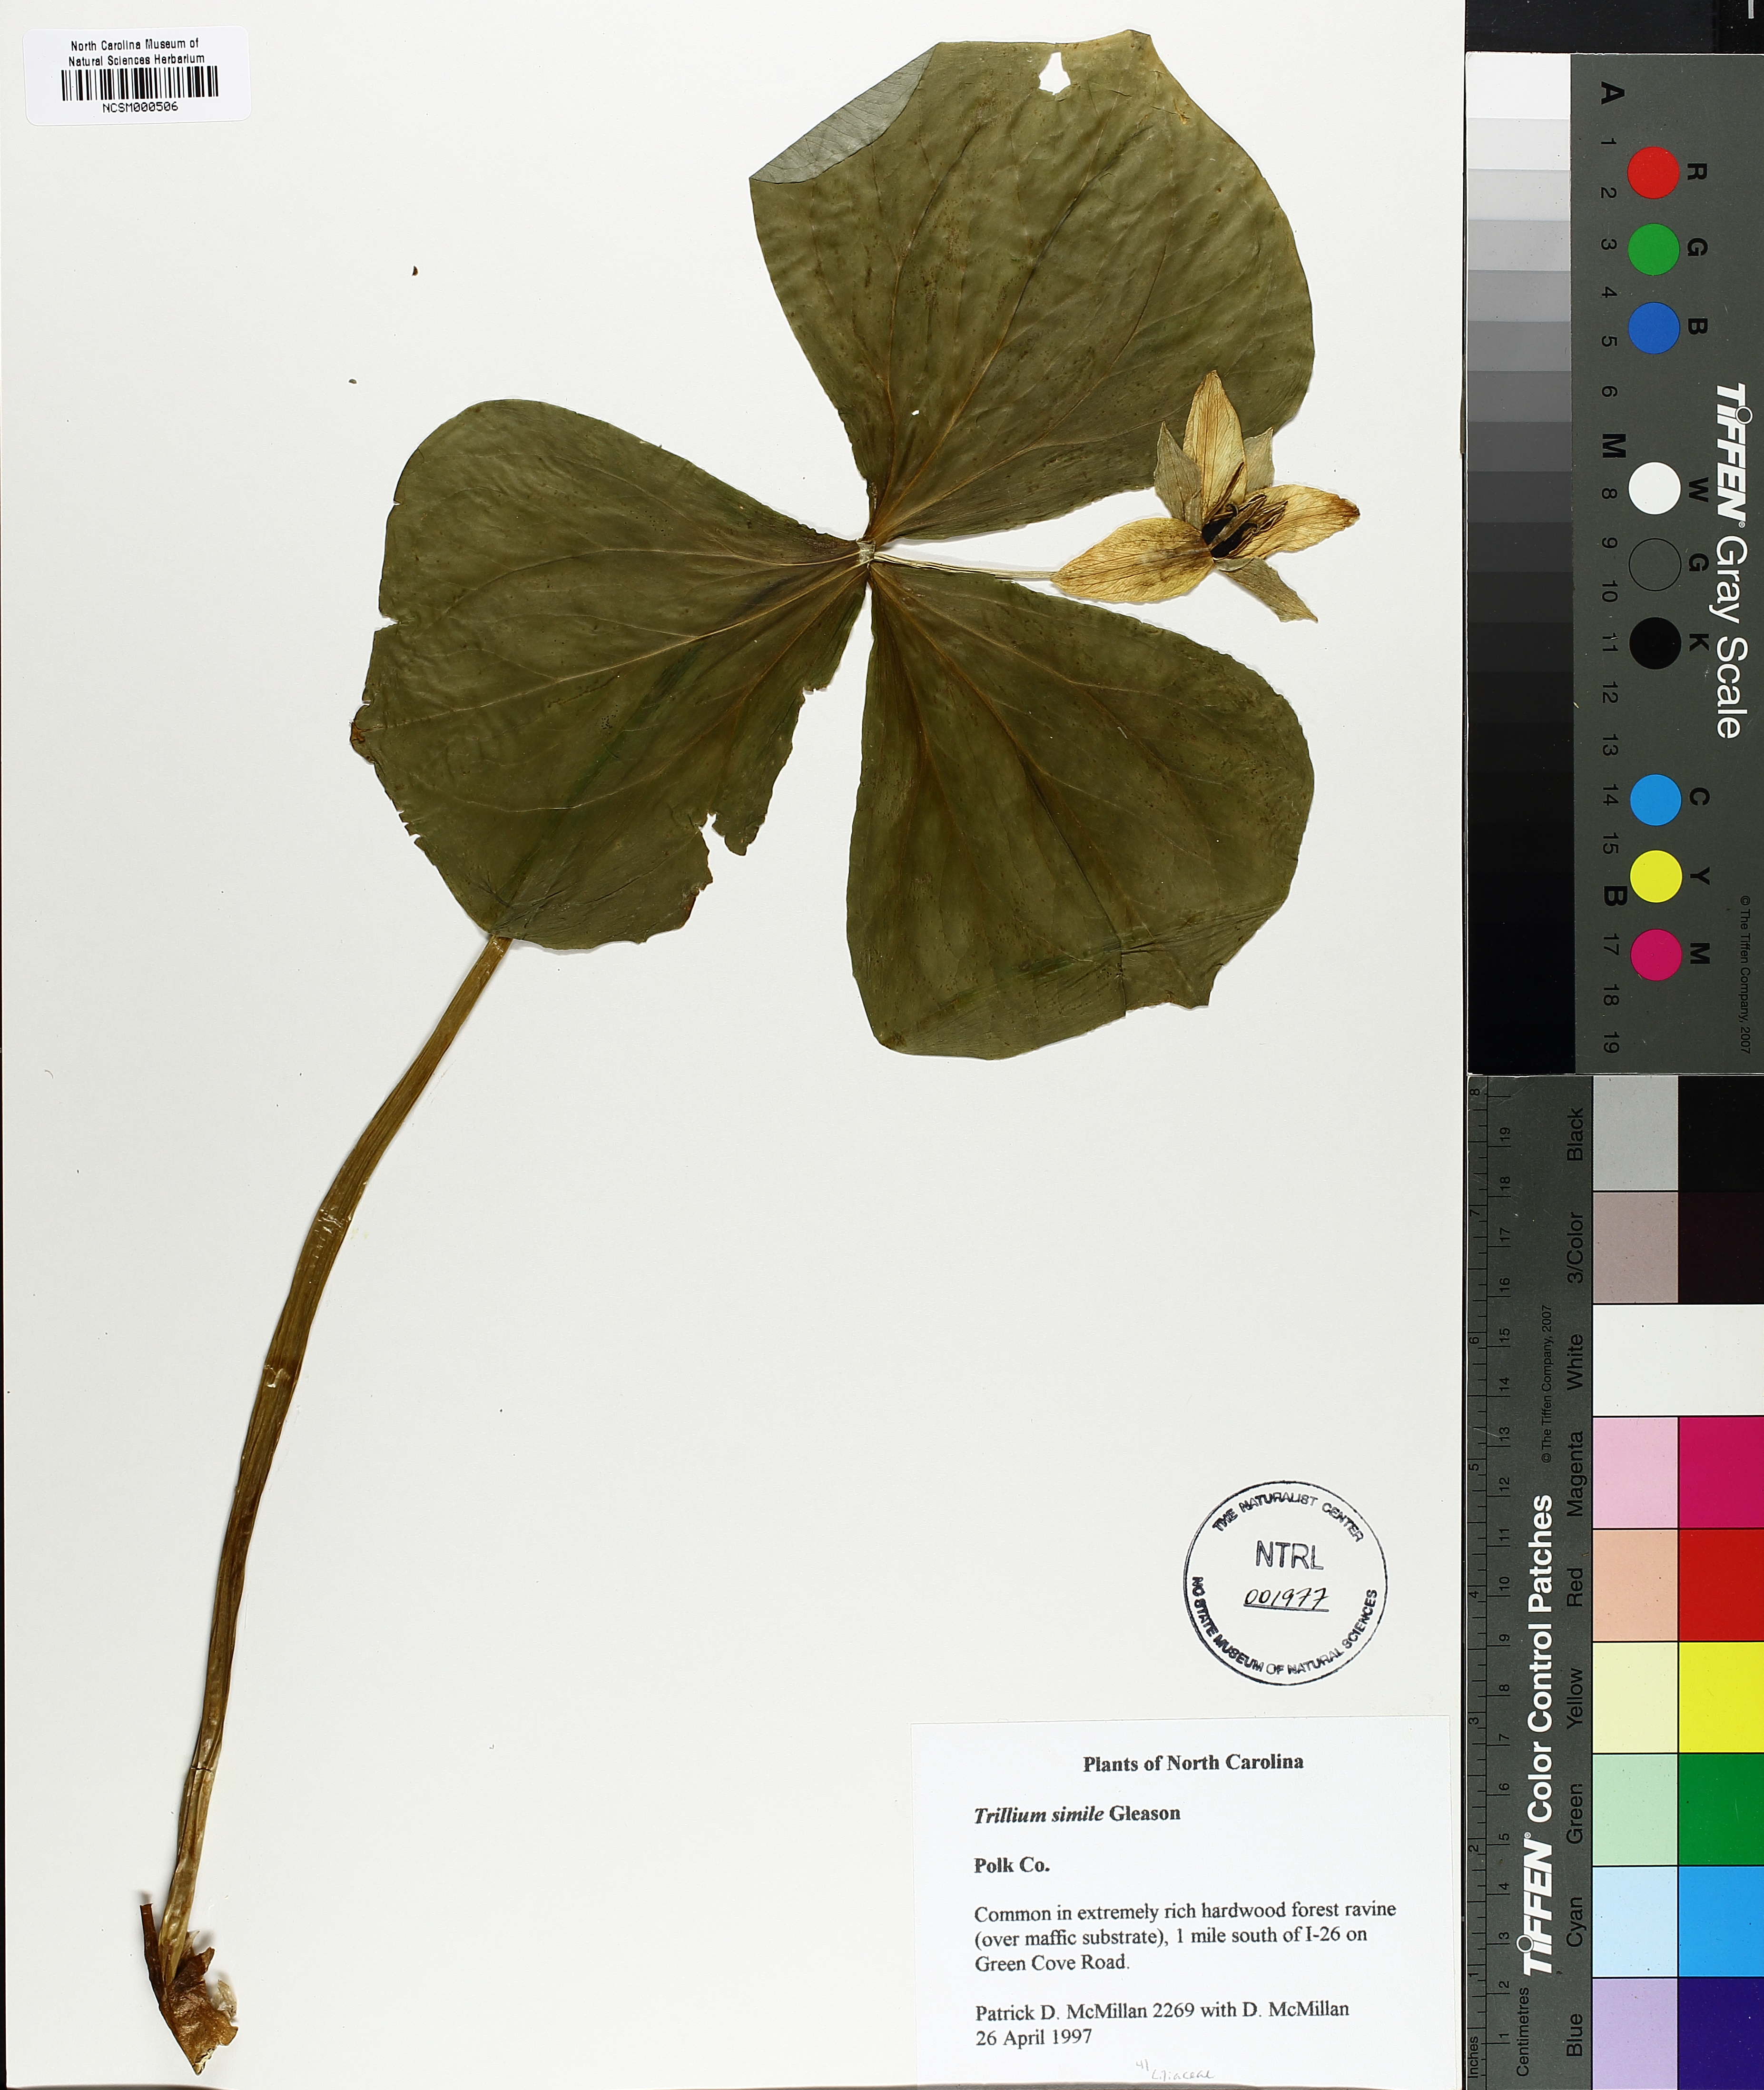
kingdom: Plantae
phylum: Tracheophyta
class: Liliopsida
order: Liliales
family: Melanthiaceae
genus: Trillium
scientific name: Trillium simile
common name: Confusing trillium
